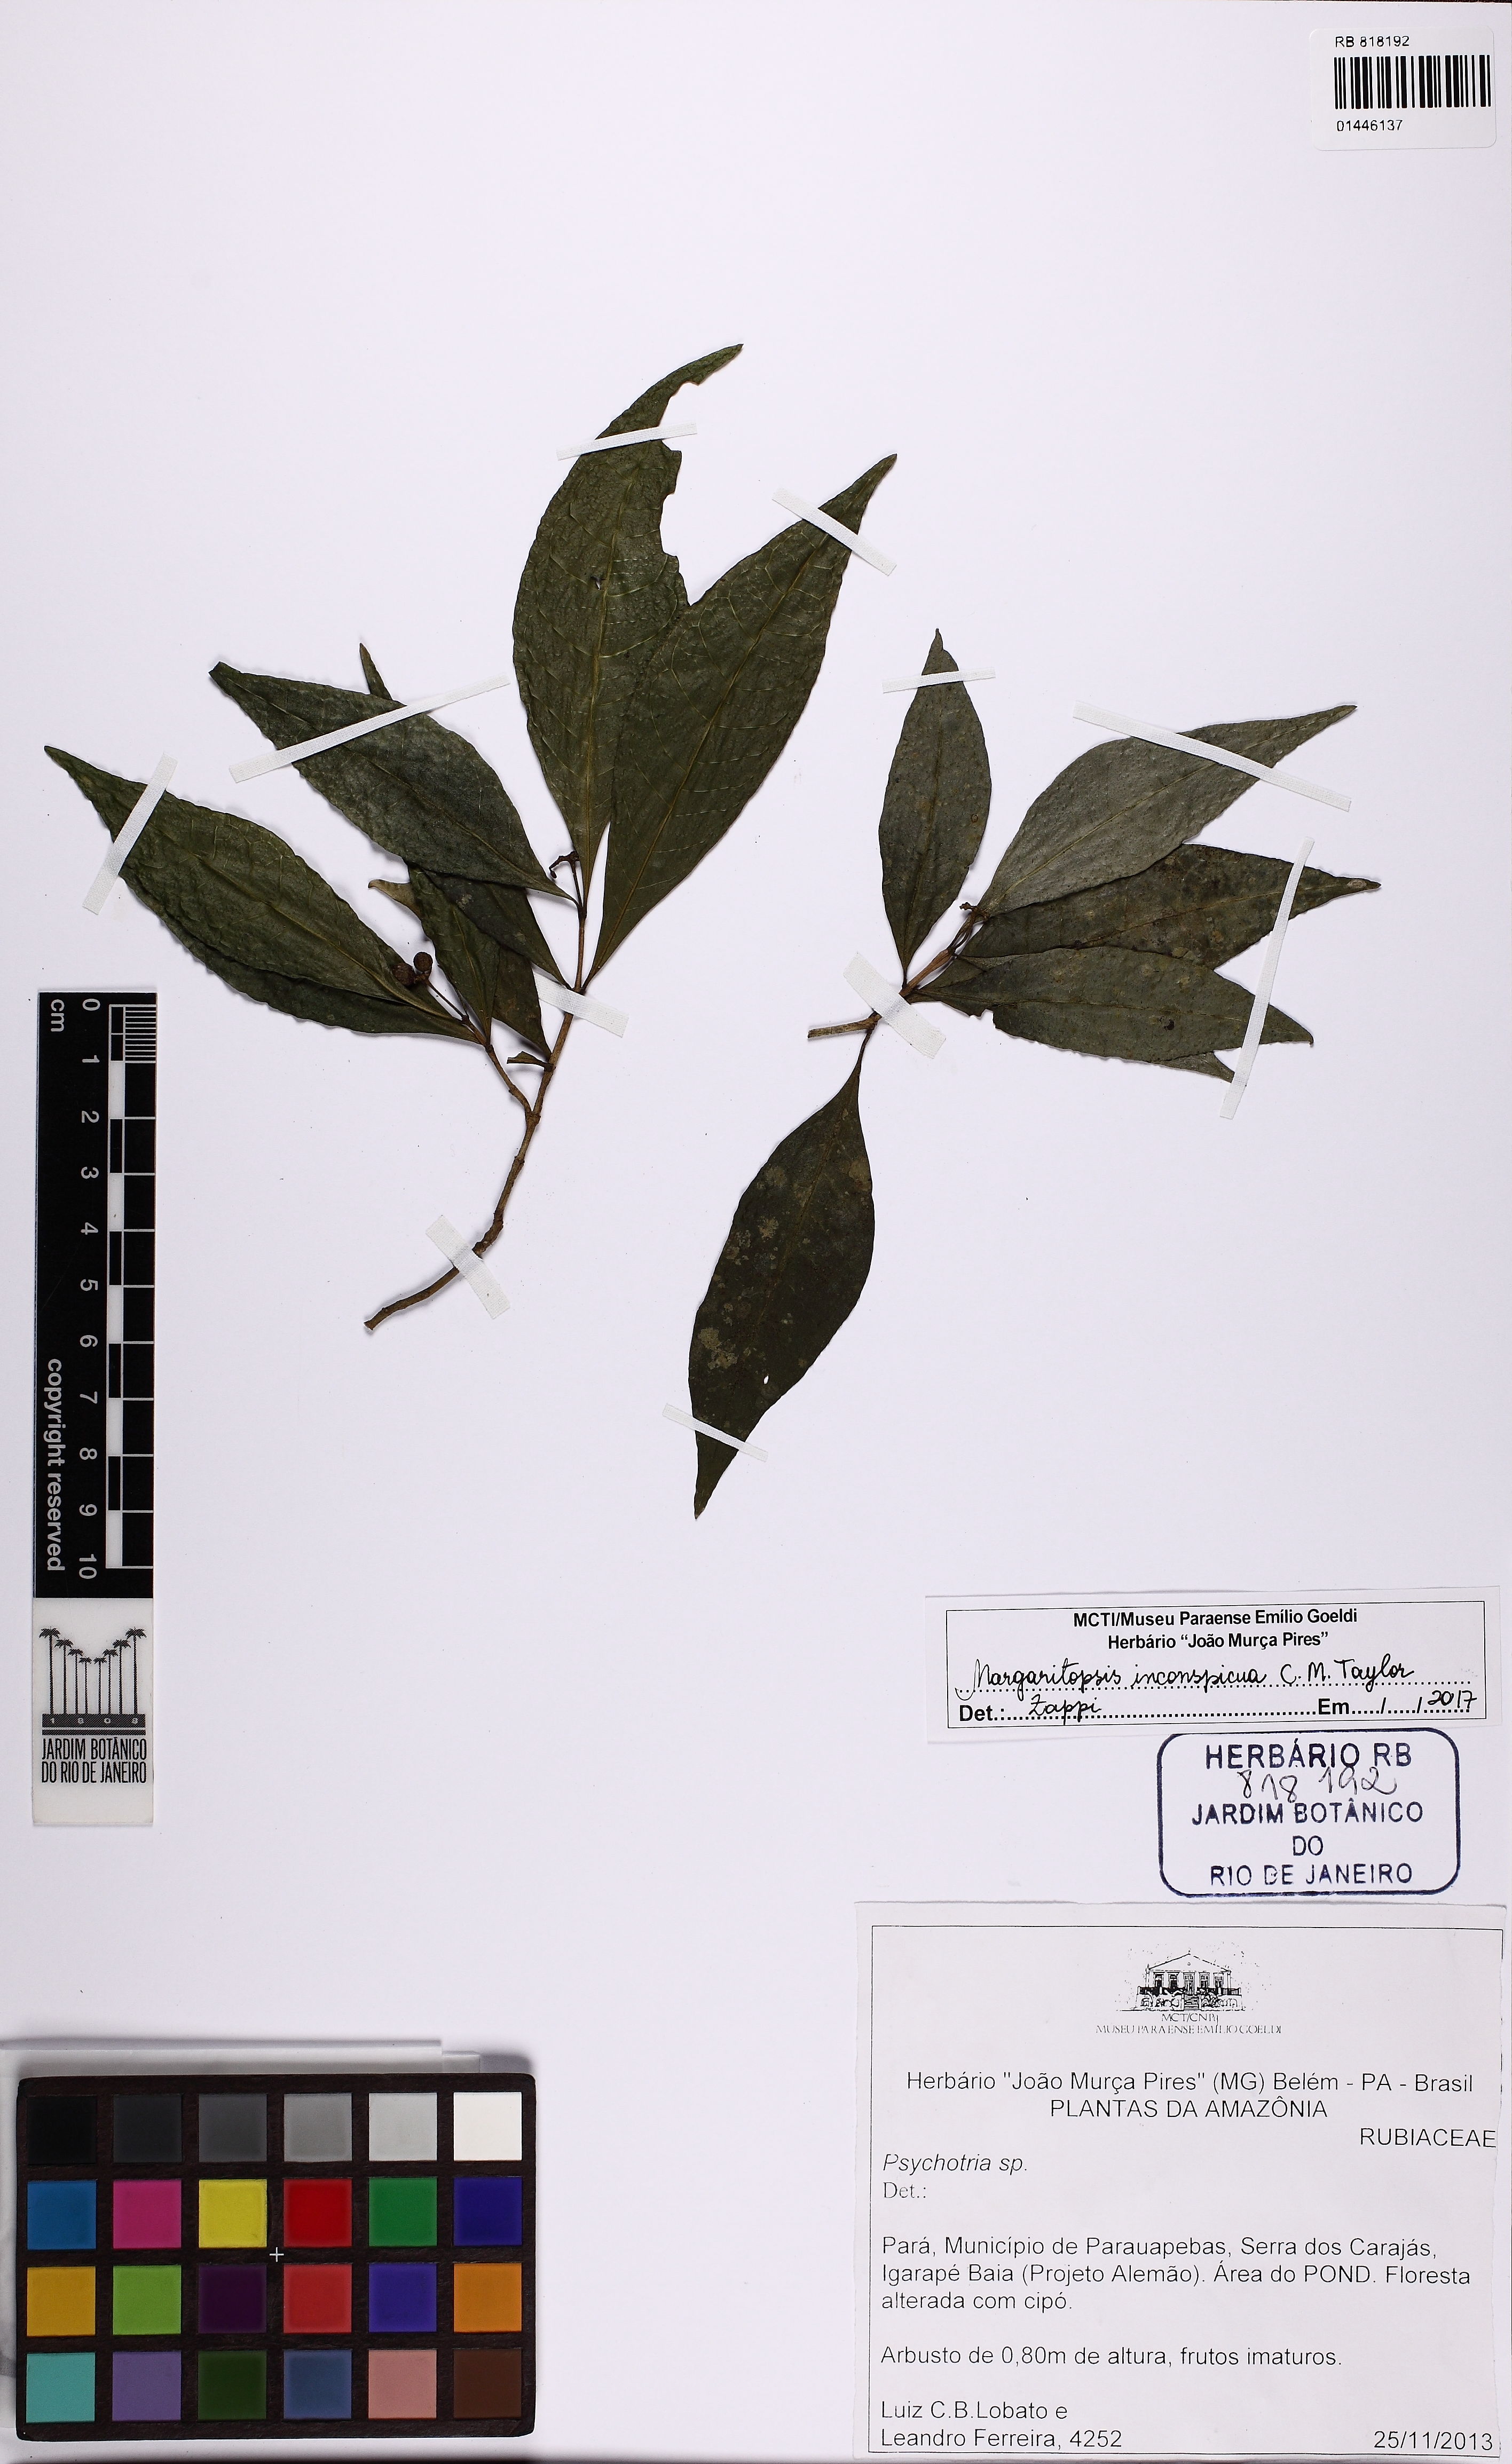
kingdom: Plantae
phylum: Tracheophyta
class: Magnoliopsida
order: Gentianales
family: Rubiaceae
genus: Eumachia
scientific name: Eumachia inconspicua
